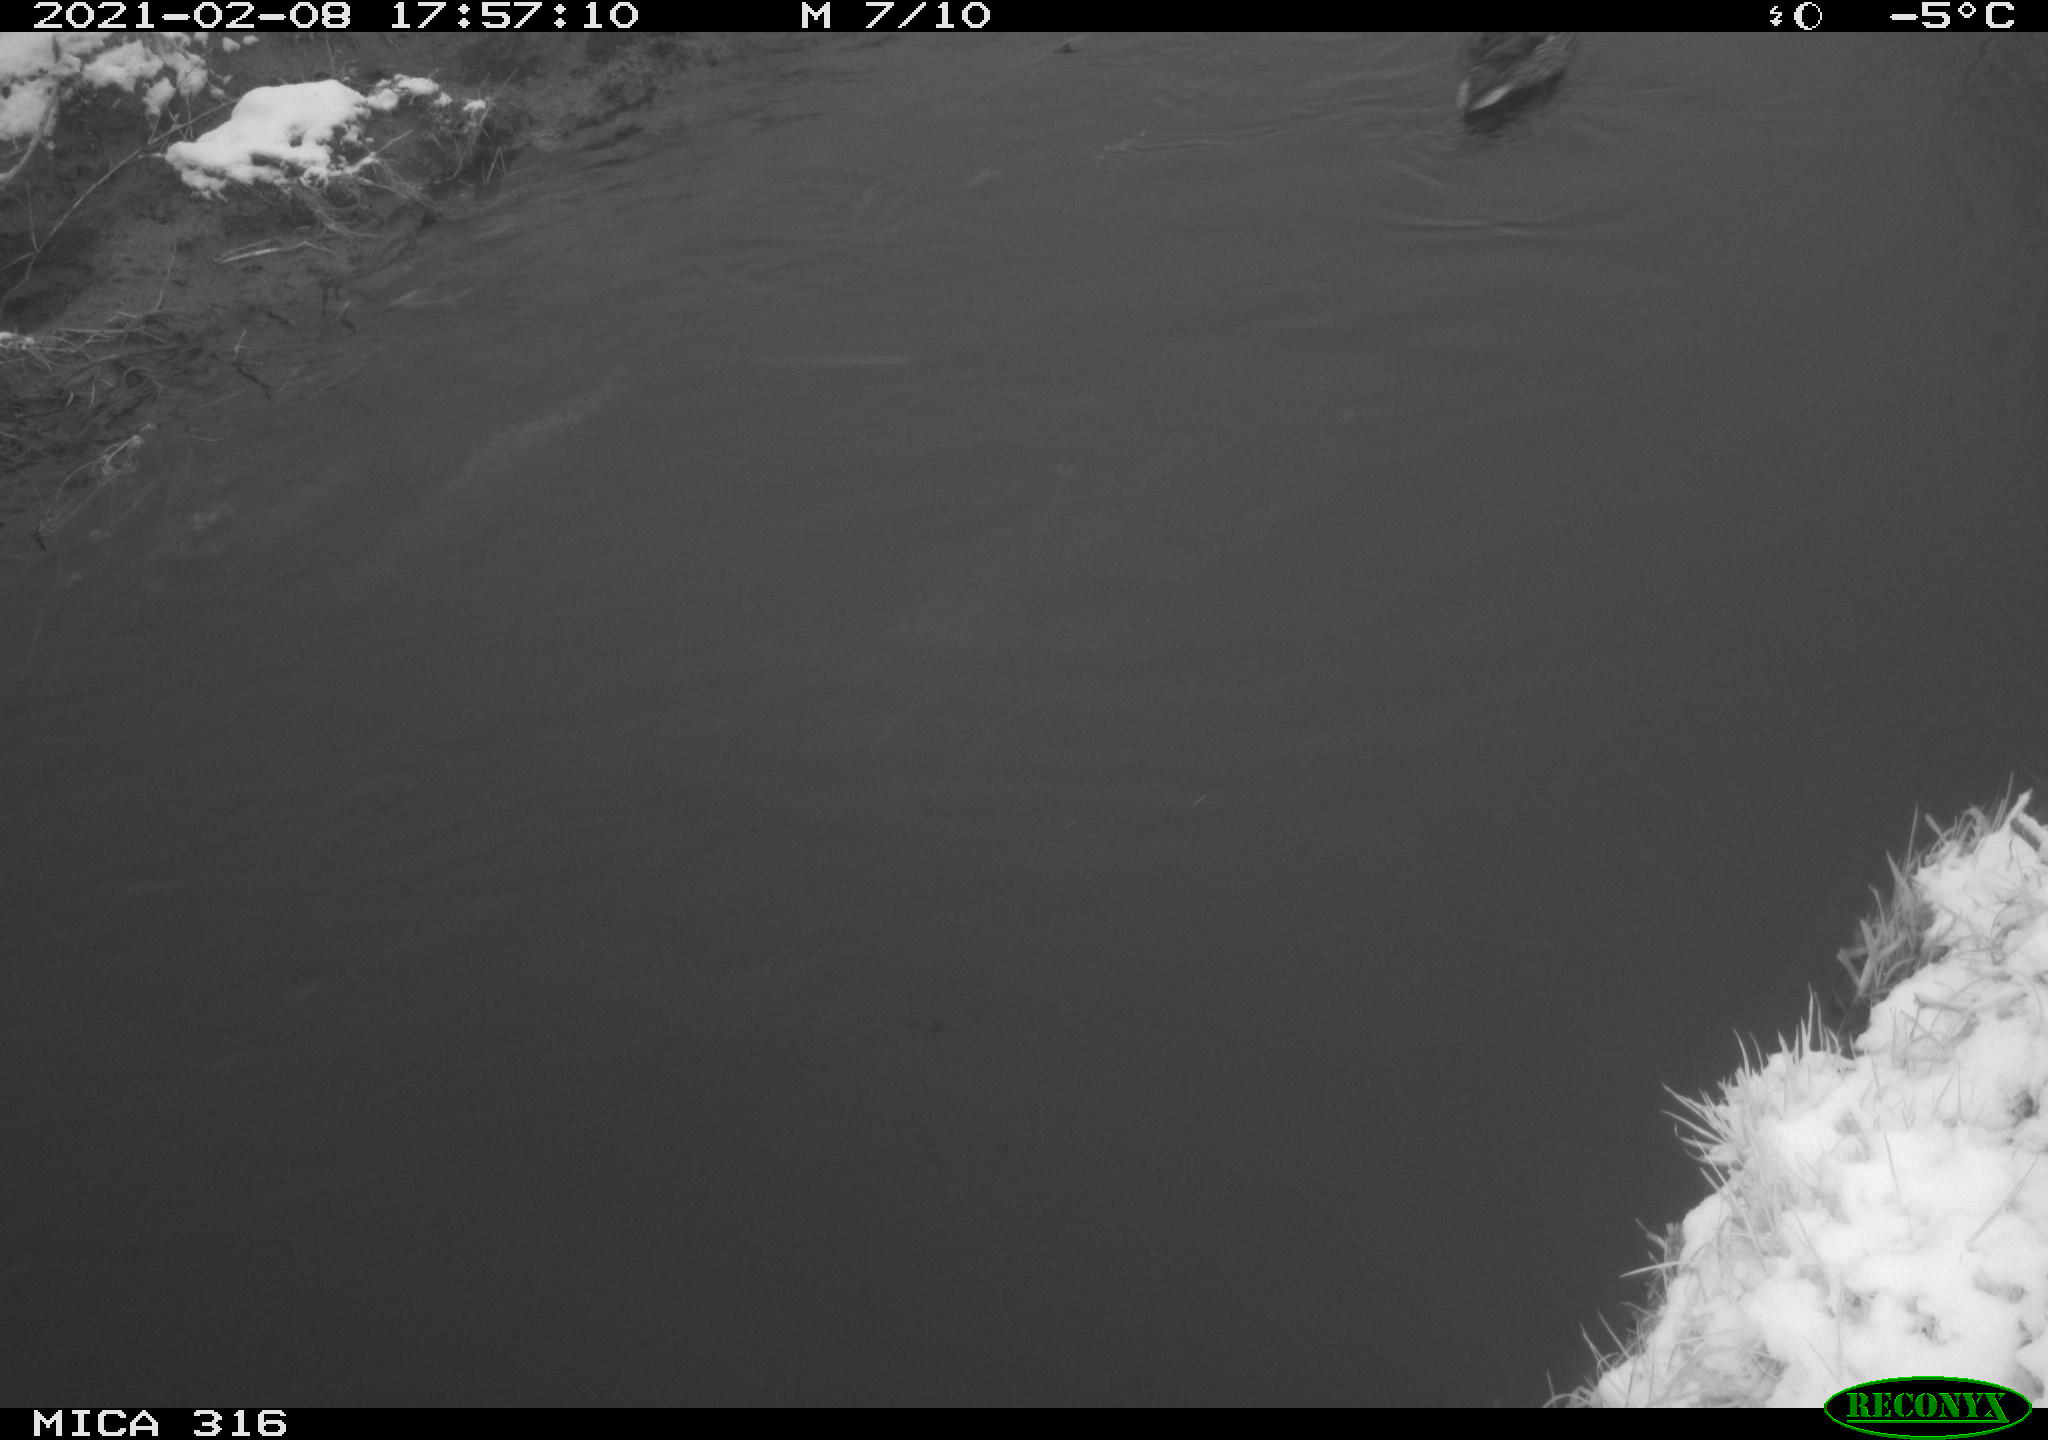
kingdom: Animalia
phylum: Chordata
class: Aves
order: Anseriformes
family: Anatidae
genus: Anas
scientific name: Anas platyrhynchos
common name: Mallard
